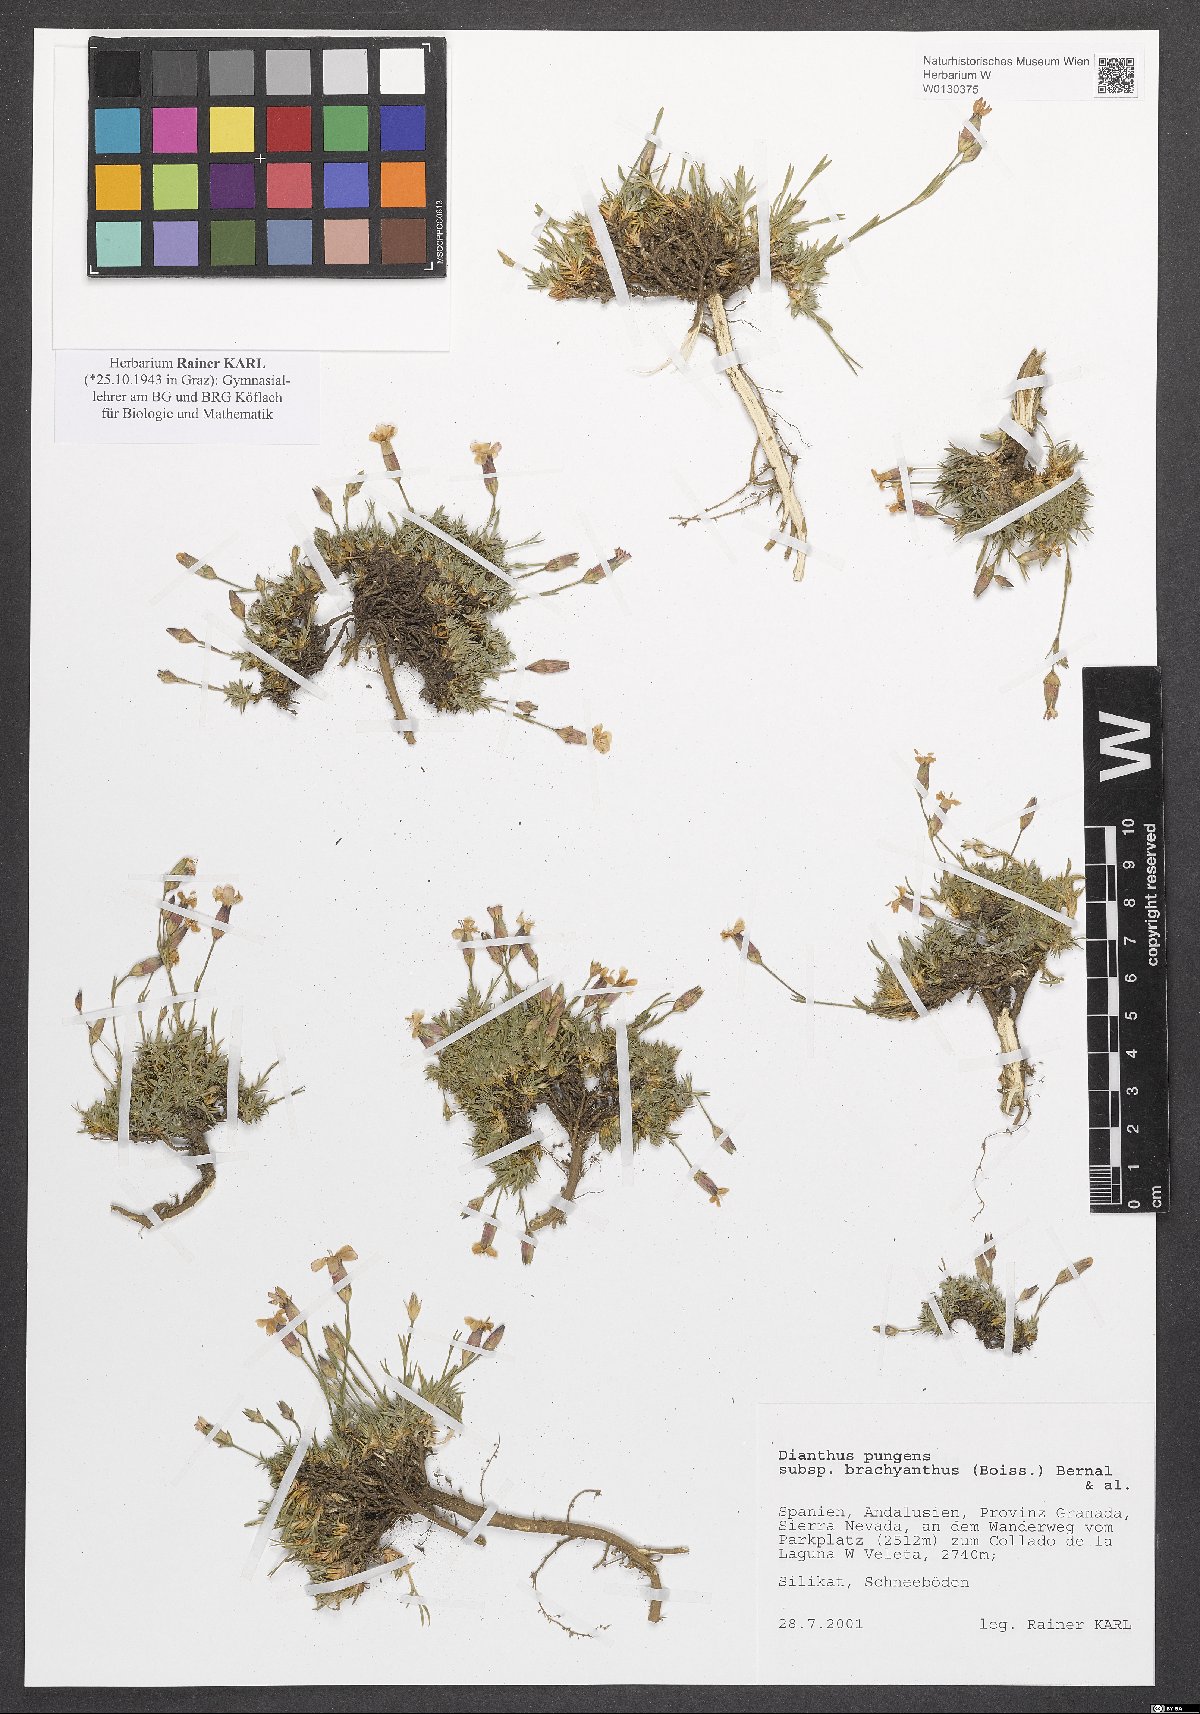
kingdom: Plantae
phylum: Tracheophyta
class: Magnoliopsida
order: Caryophyllales
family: Caryophyllaceae
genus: Dianthus
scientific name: Dianthus pungens
